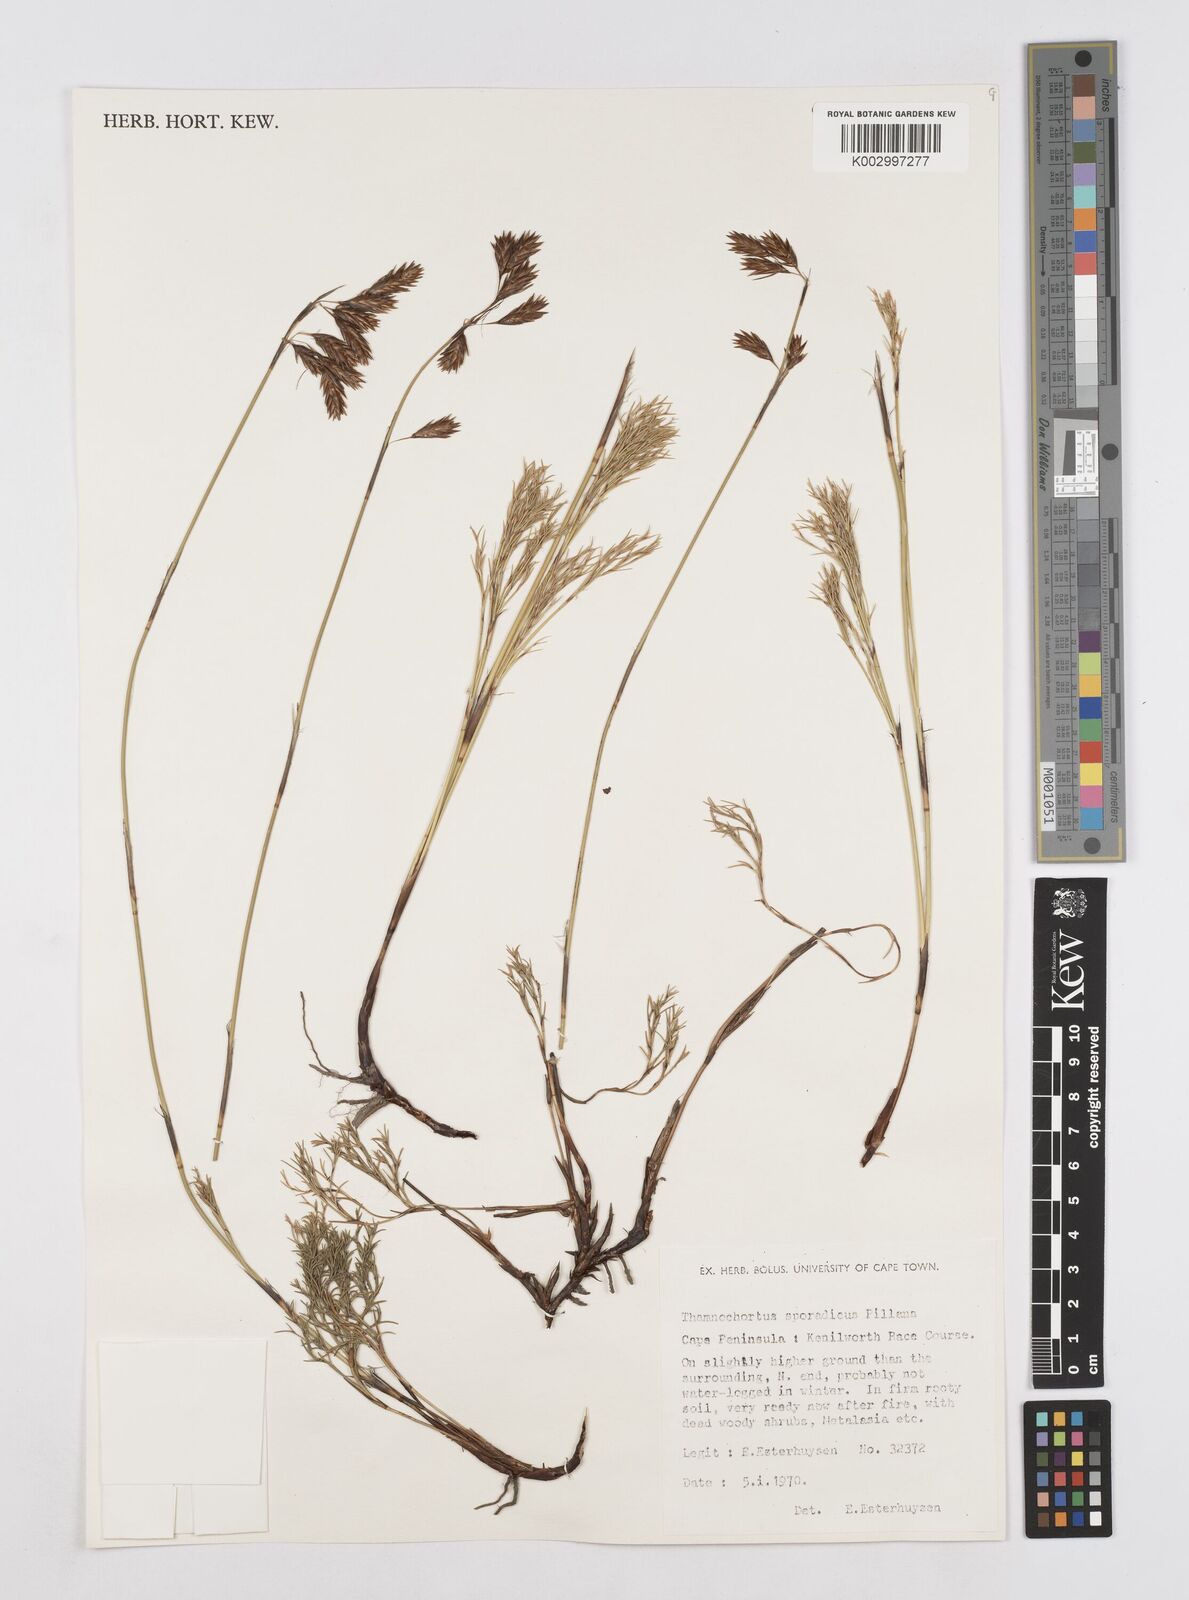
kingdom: Plantae
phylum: Tracheophyta
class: Liliopsida
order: Poales
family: Restionaceae
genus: Thamnochortus
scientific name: Thamnochortus sporadicus
